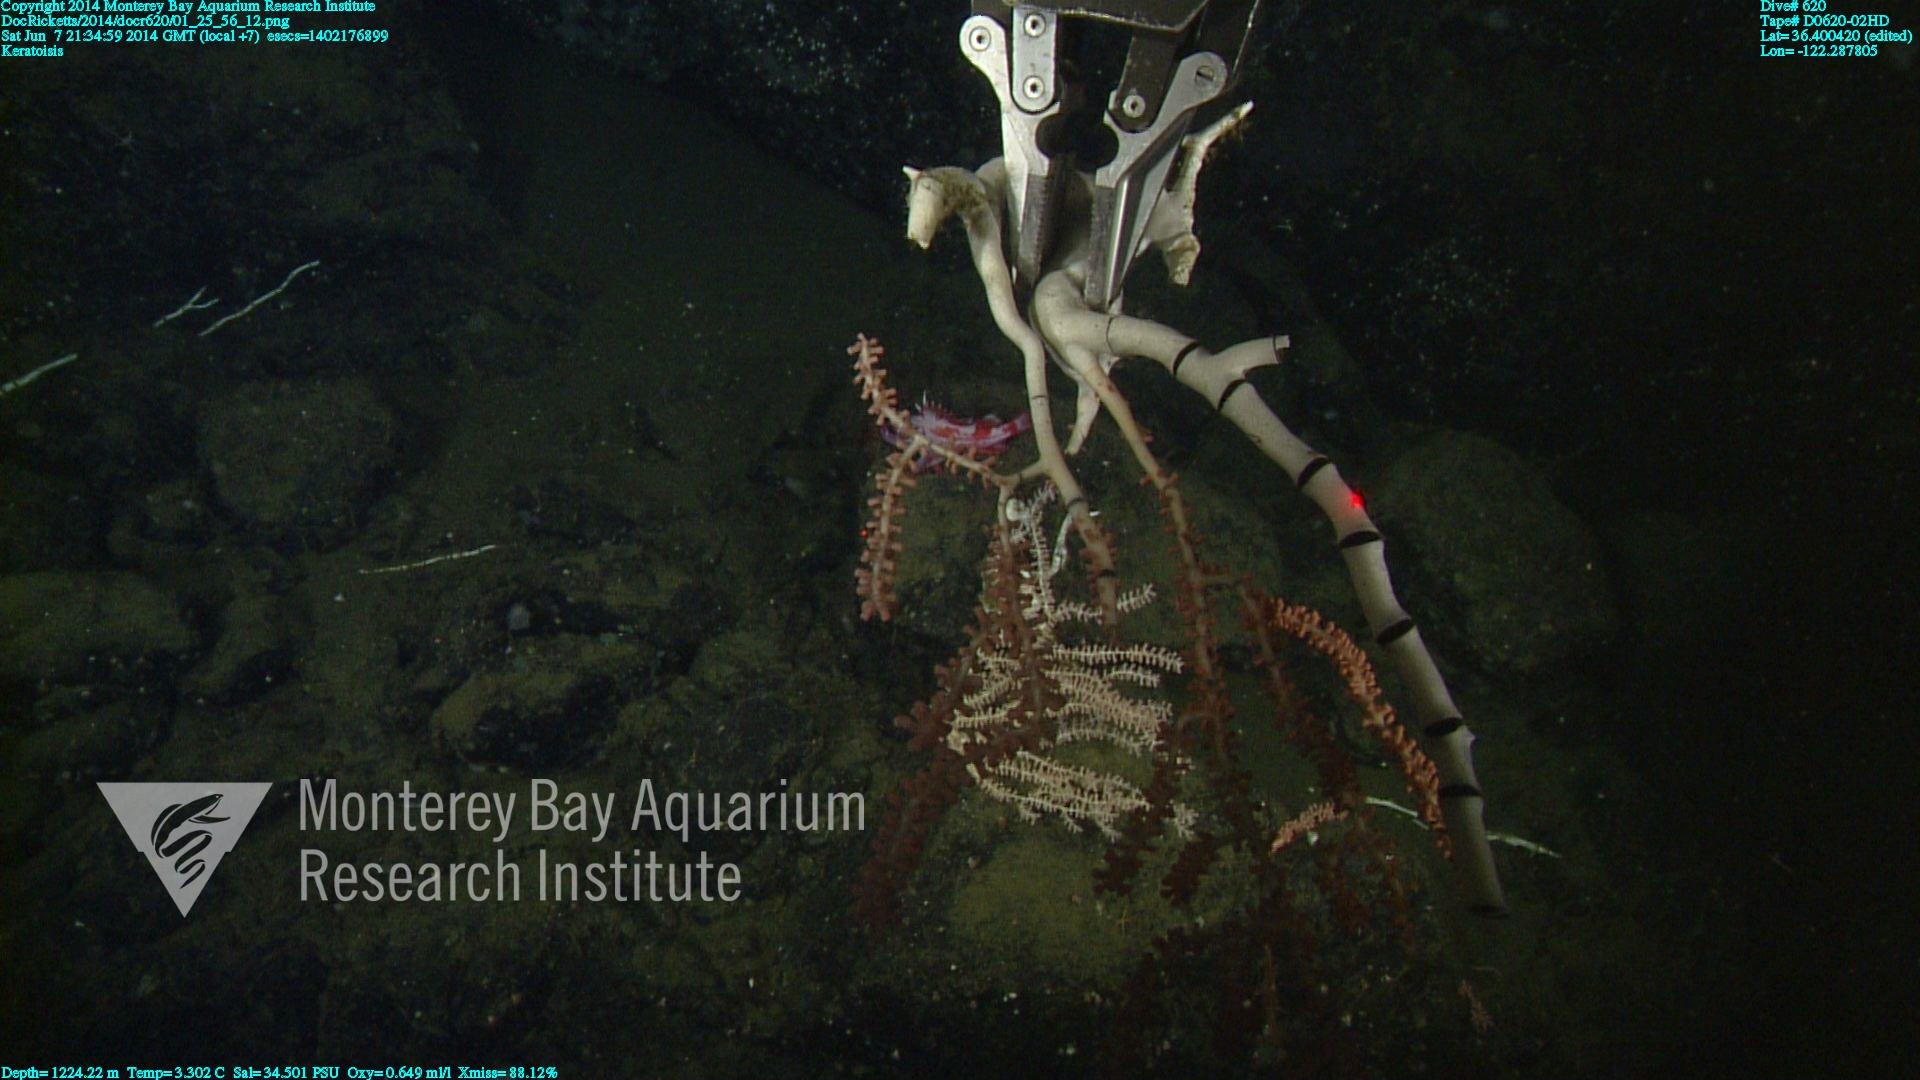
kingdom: Animalia
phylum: Cnidaria
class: Anthozoa
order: Scleralcyonacea
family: Keratoisididae
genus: Keratoisis
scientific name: Keratoisis
